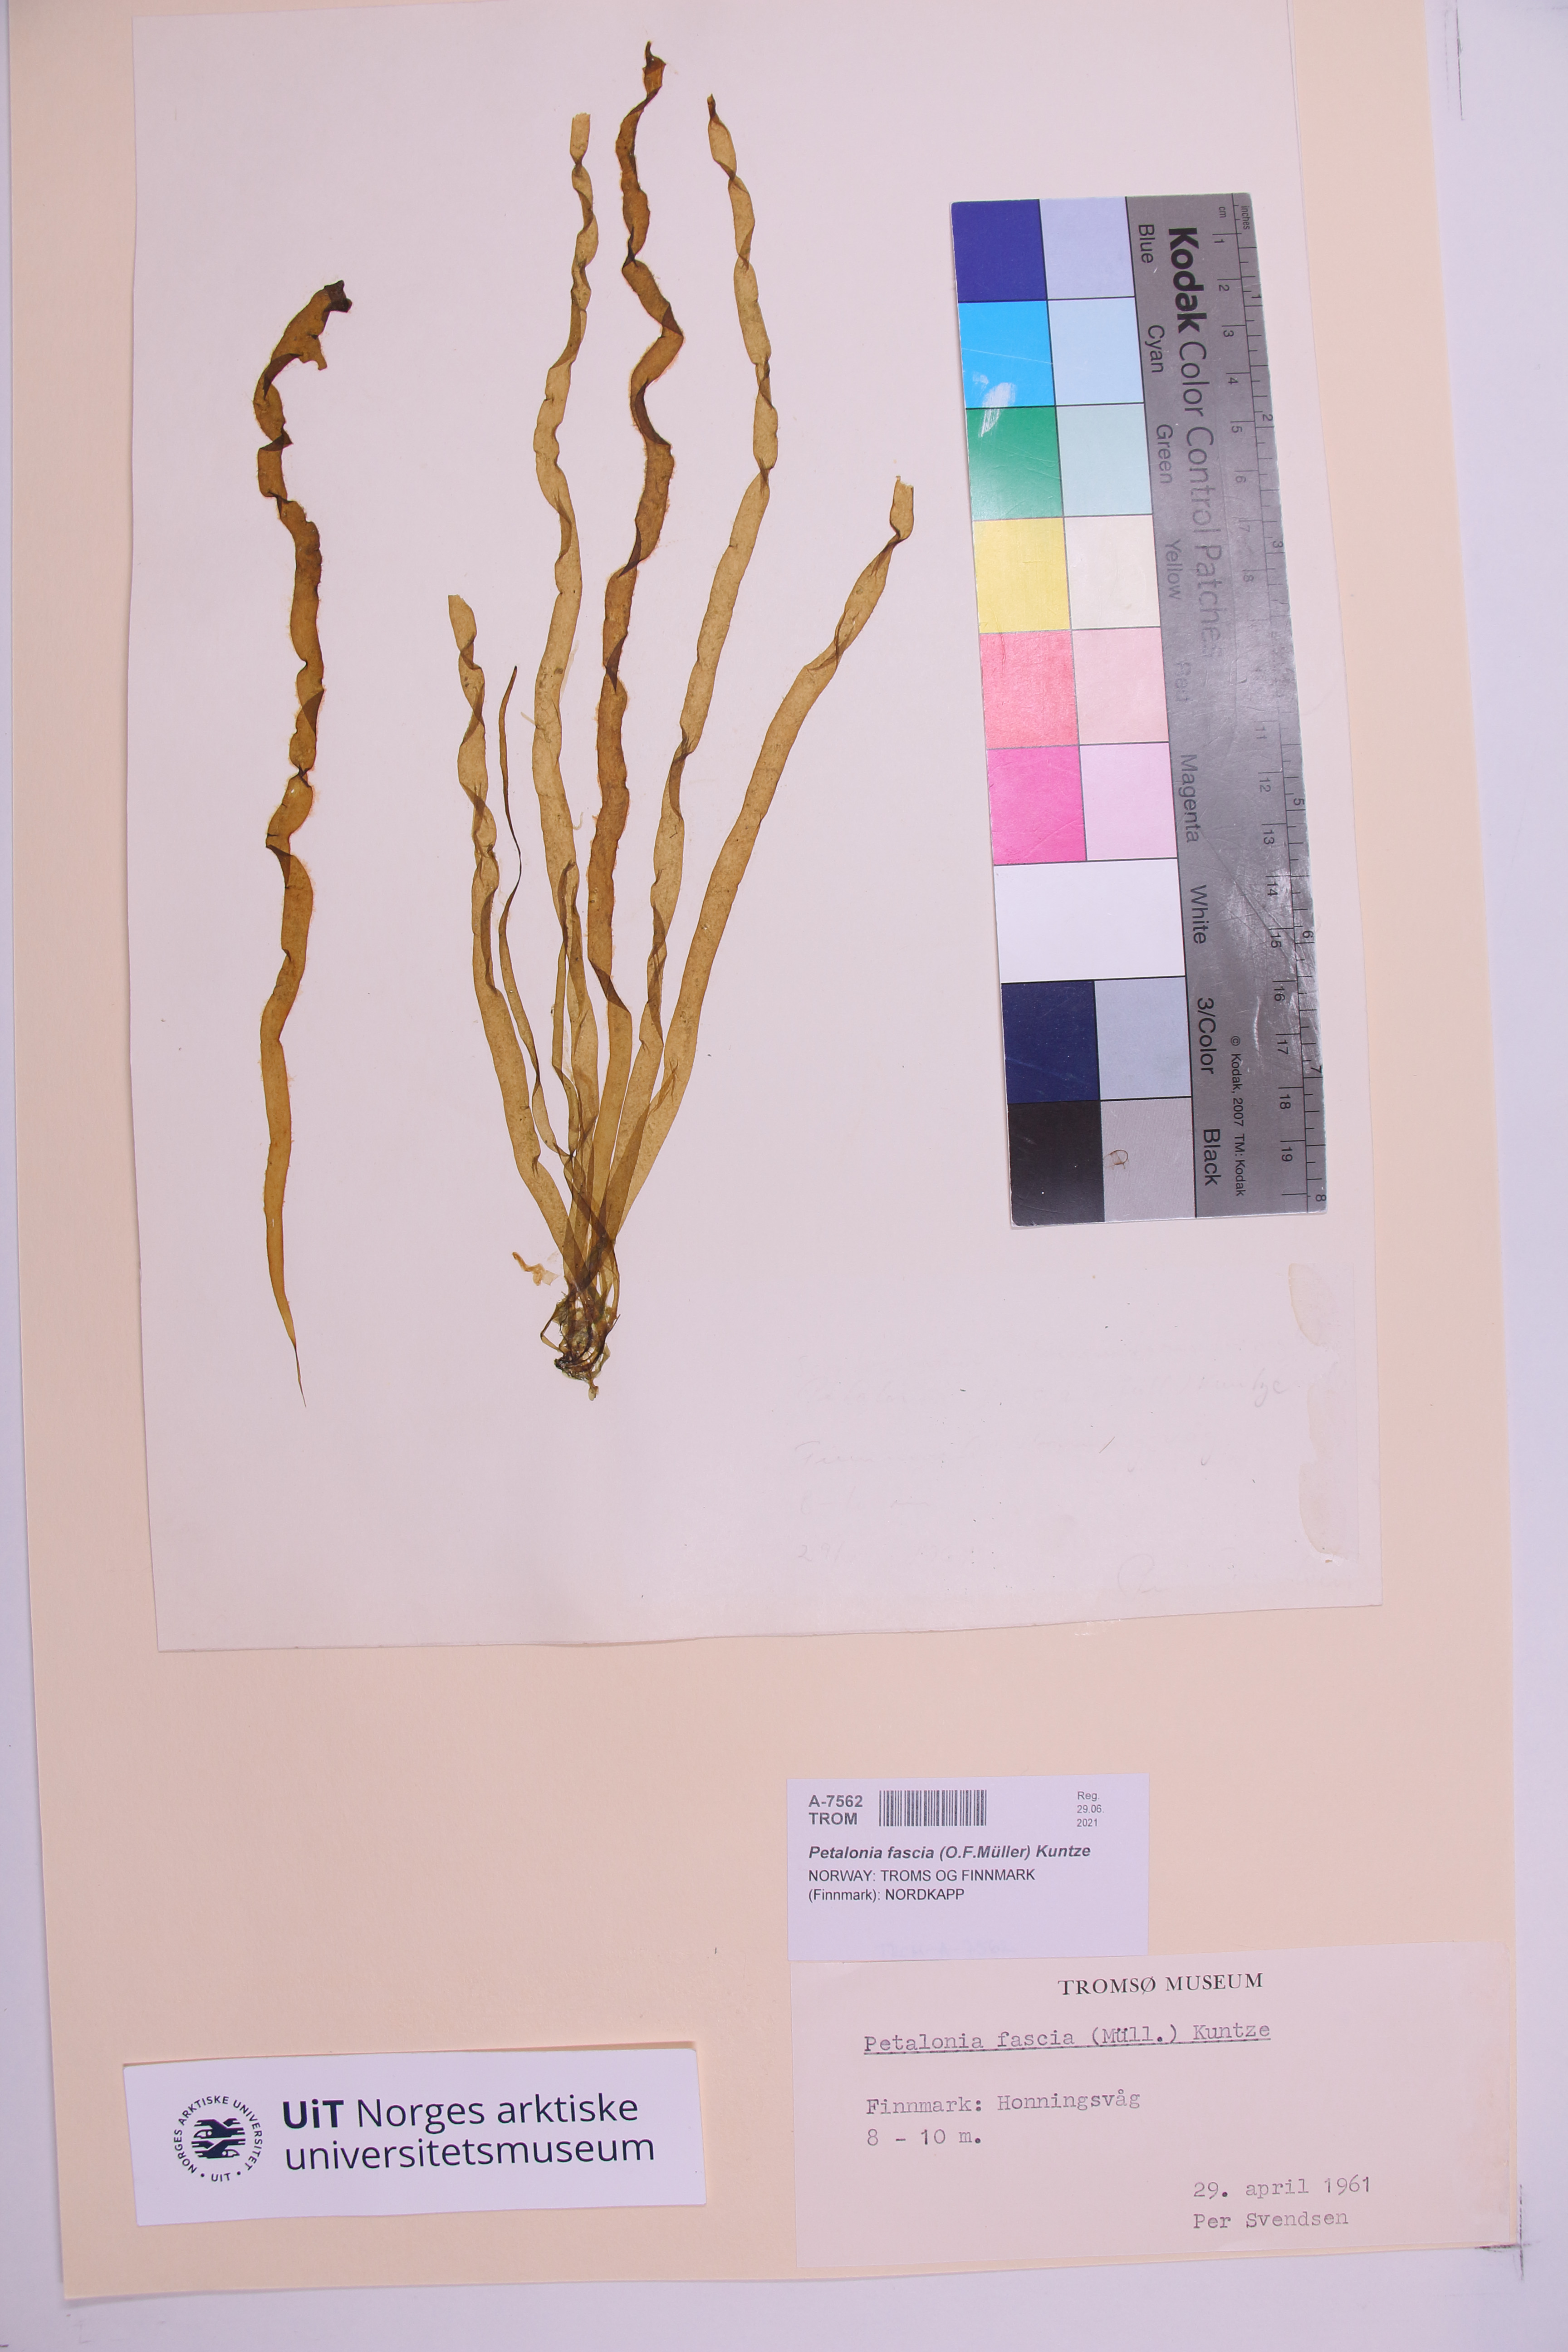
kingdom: Chromista
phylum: Ochrophyta
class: Phaeophyceae
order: Scytosiphonales
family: Scytosiphonaceae
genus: Petalonia
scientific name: Petalonia fascia
